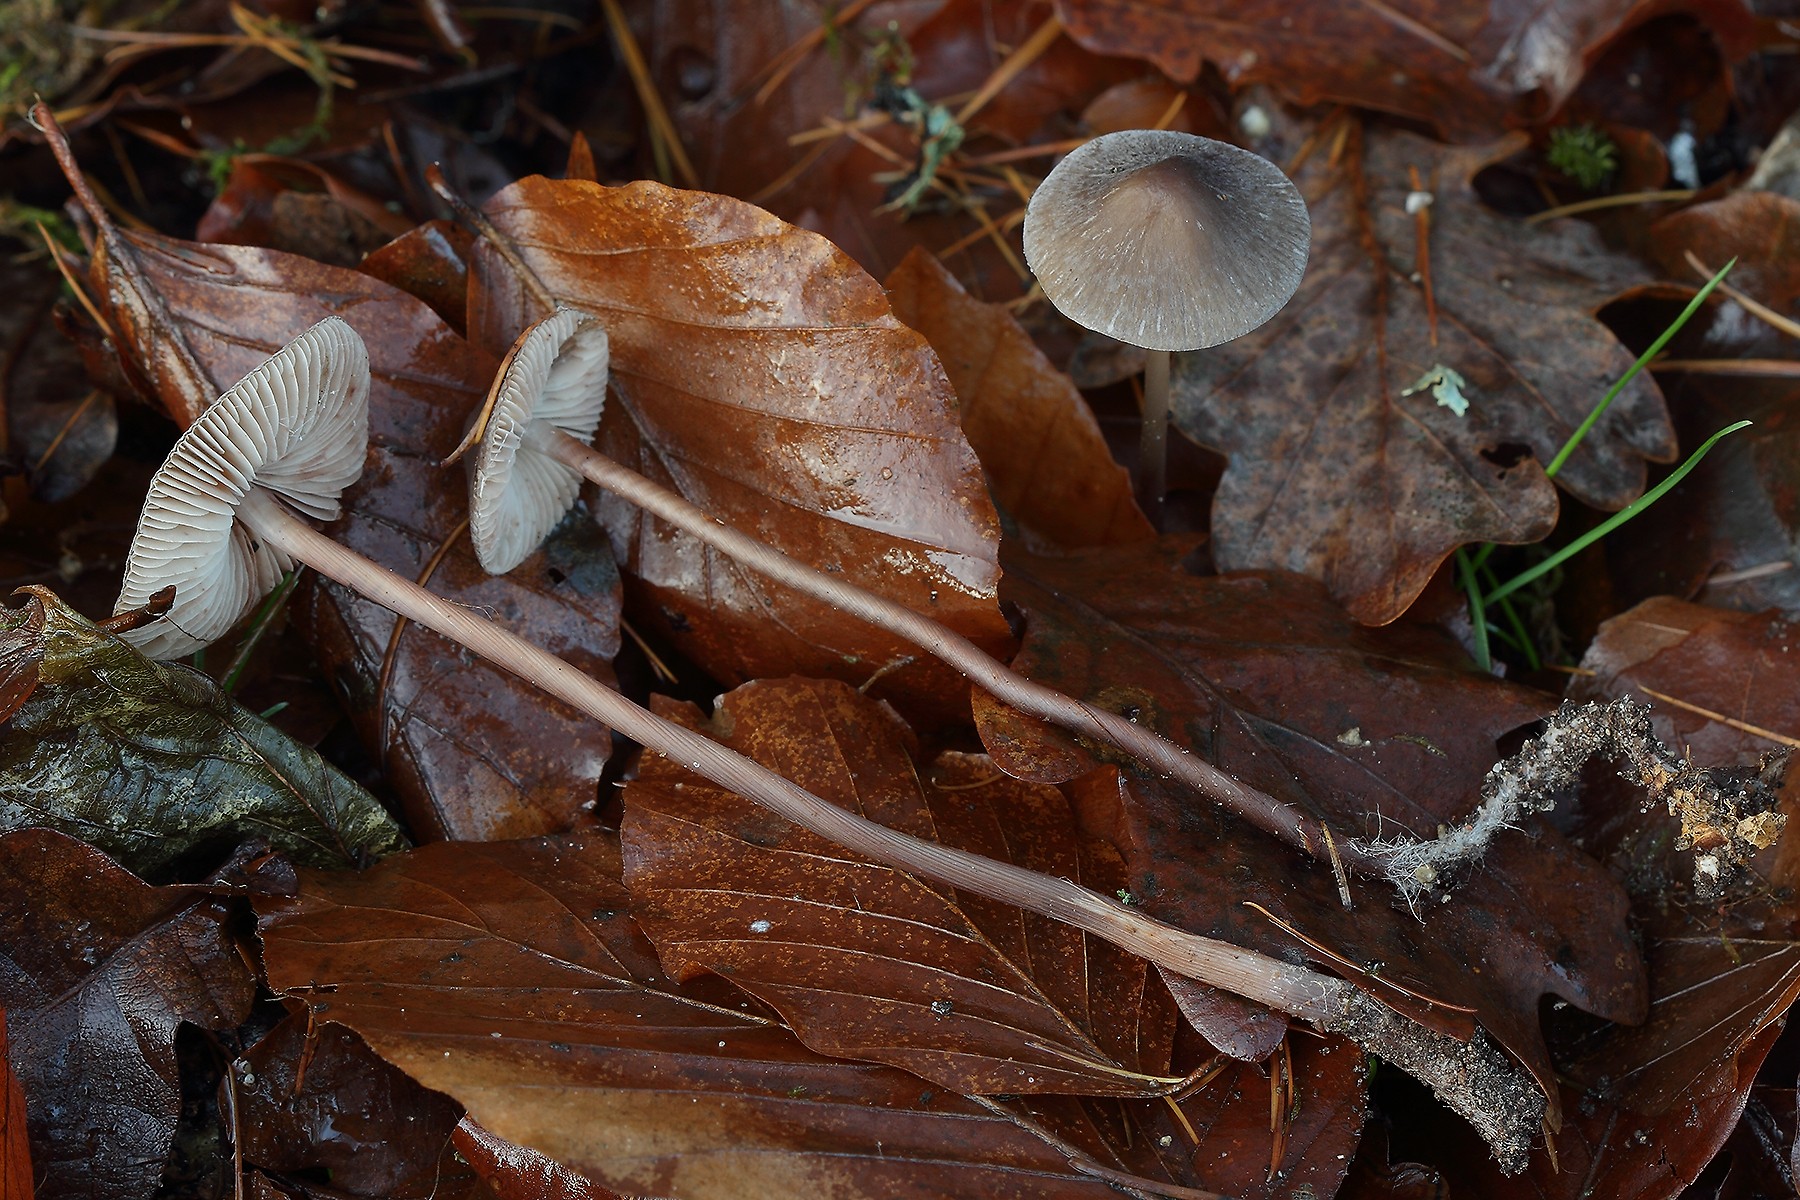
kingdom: Fungi
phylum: Basidiomycota
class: Agaricomycetes
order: Agaricales
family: Mycenaceae
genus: Mycena
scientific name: Mycena polygramma
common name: mangestribet huesvamp
